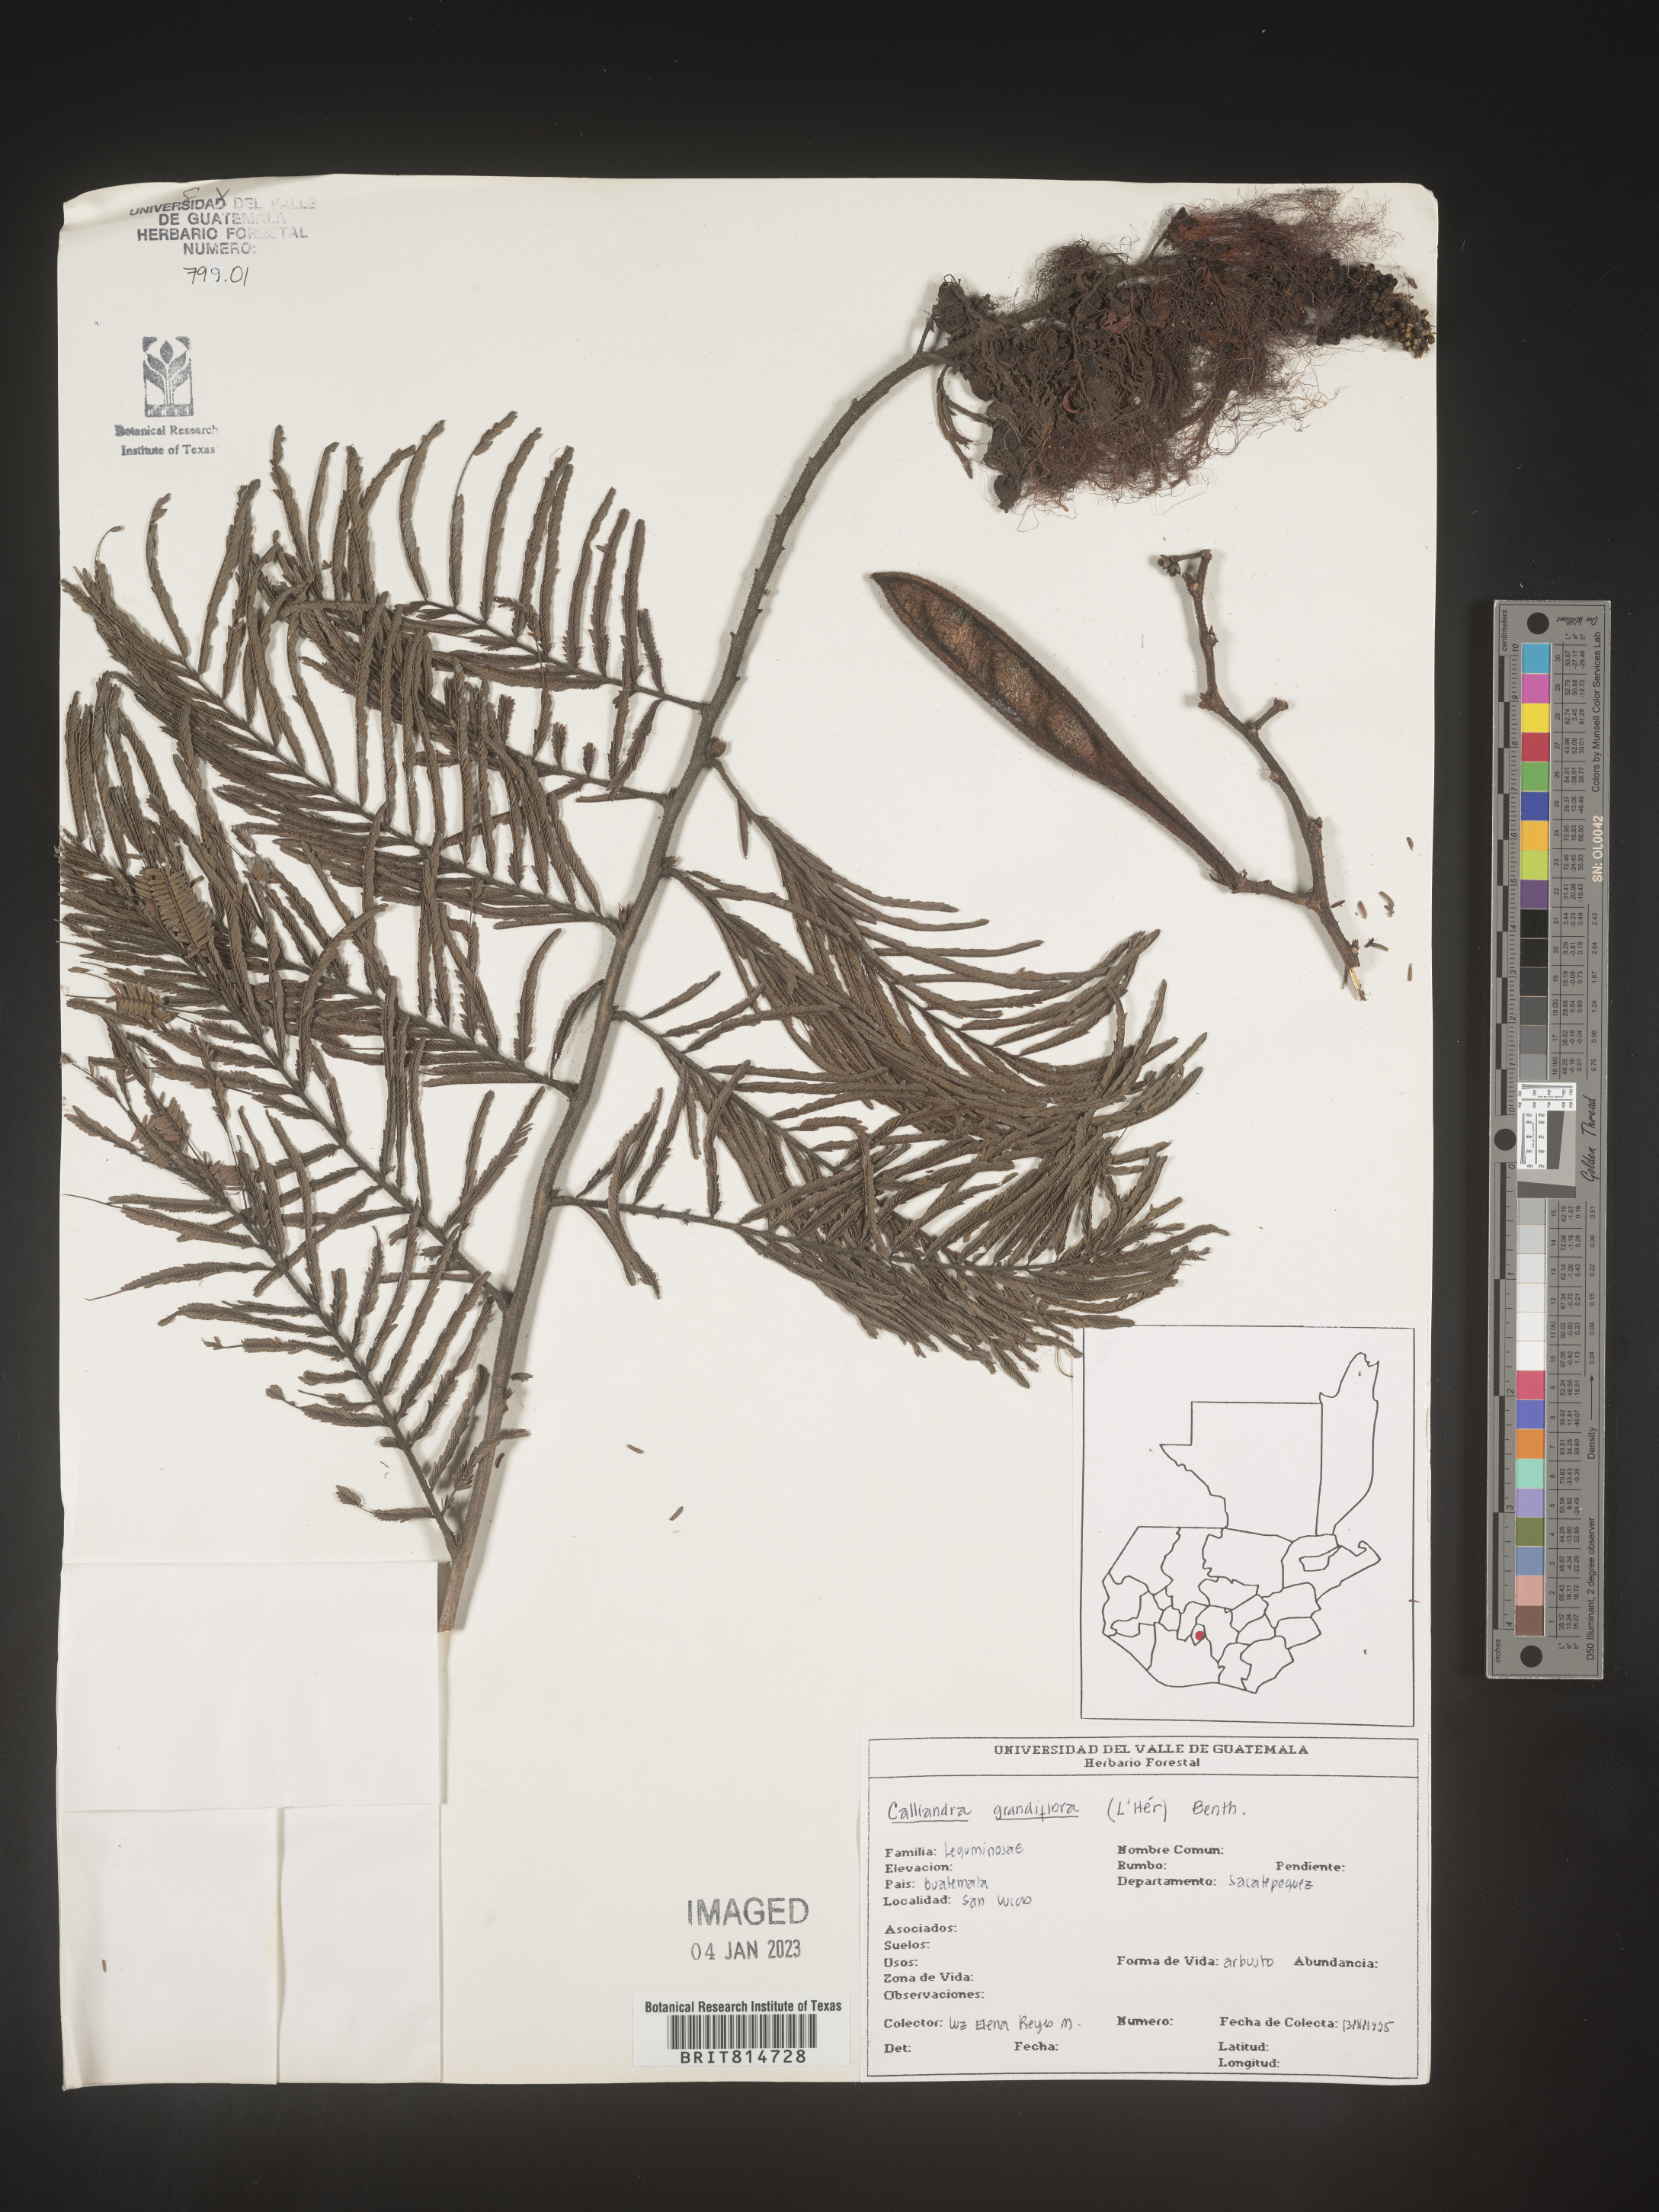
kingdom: Plantae
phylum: Tracheophyta
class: Magnoliopsida
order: Fabales
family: Fabaceae
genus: Calliandra
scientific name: Calliandra
